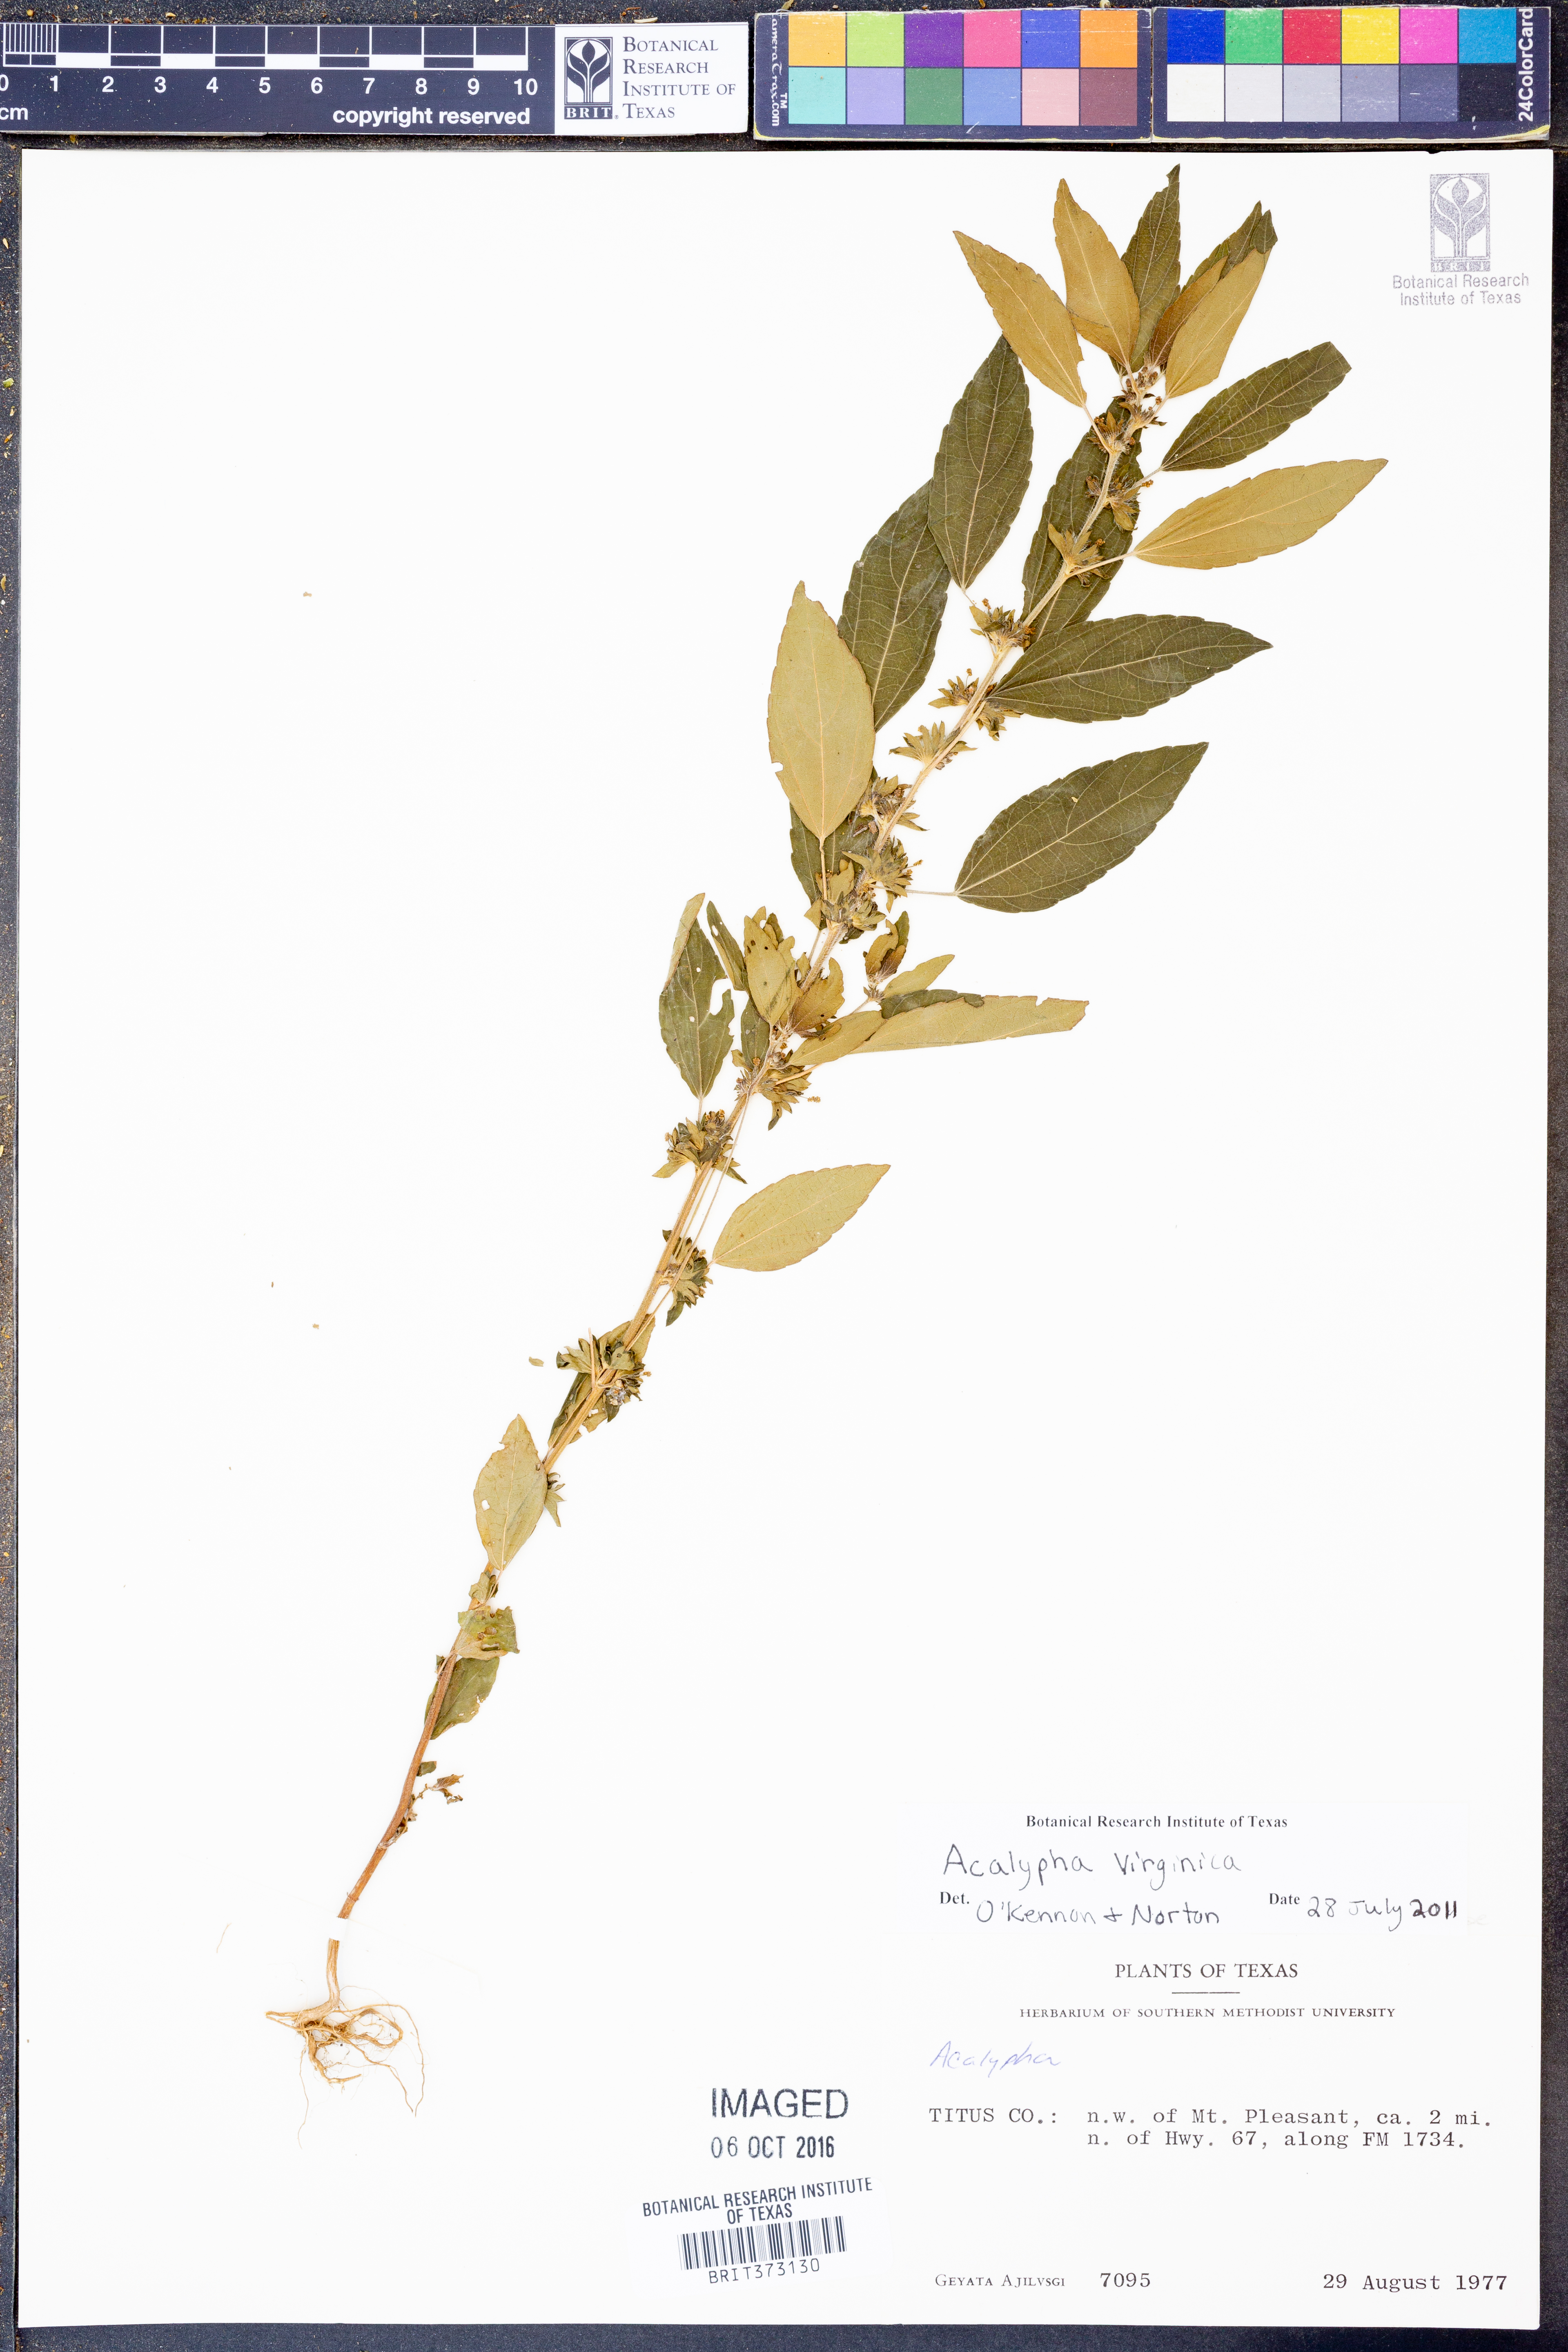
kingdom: Plantae
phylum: Tracheophyta
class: Magnoliopsida
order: Malpighiales
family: Euphorbiaceae
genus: Acalypha
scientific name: Acalypha virginica
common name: Virginia copperleaf
